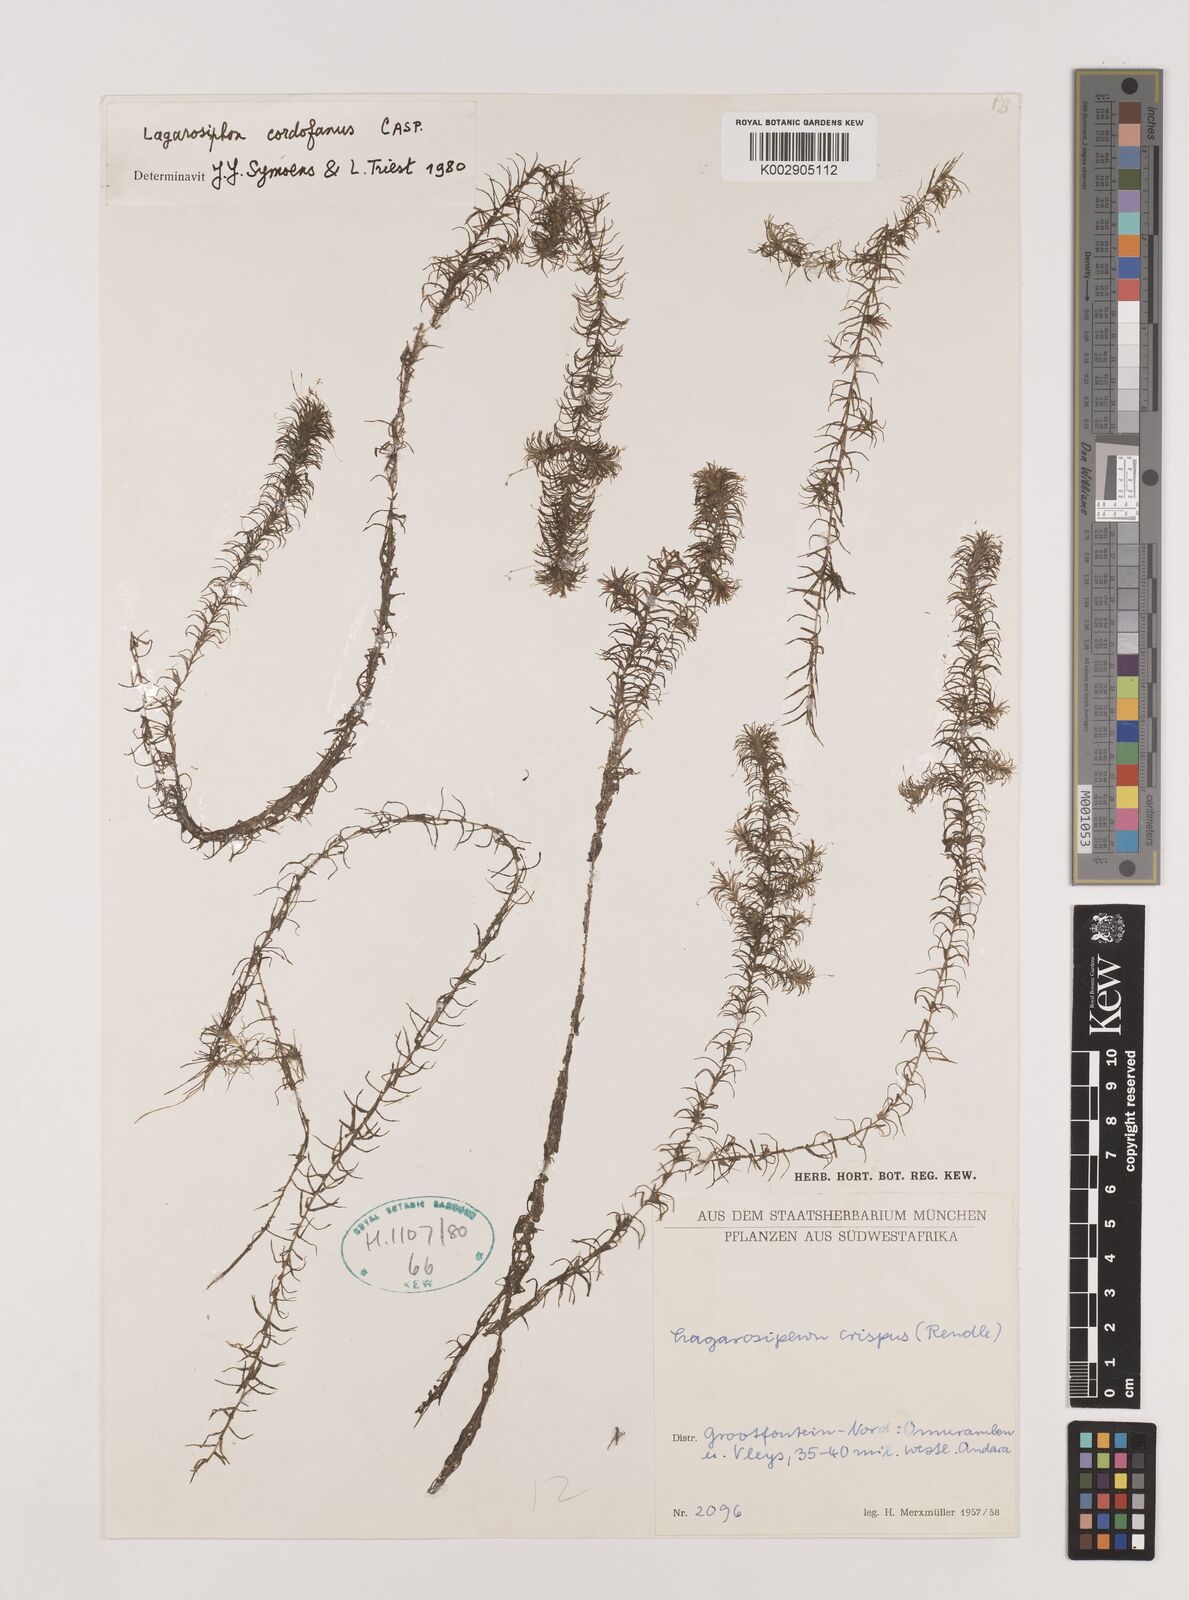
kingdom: Plantae
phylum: Tracheophyta
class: Liliopsida
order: Alismatales
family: Hydrocharitaceae
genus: Lagarosiphon
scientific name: Lagarosiphon cordofanus
